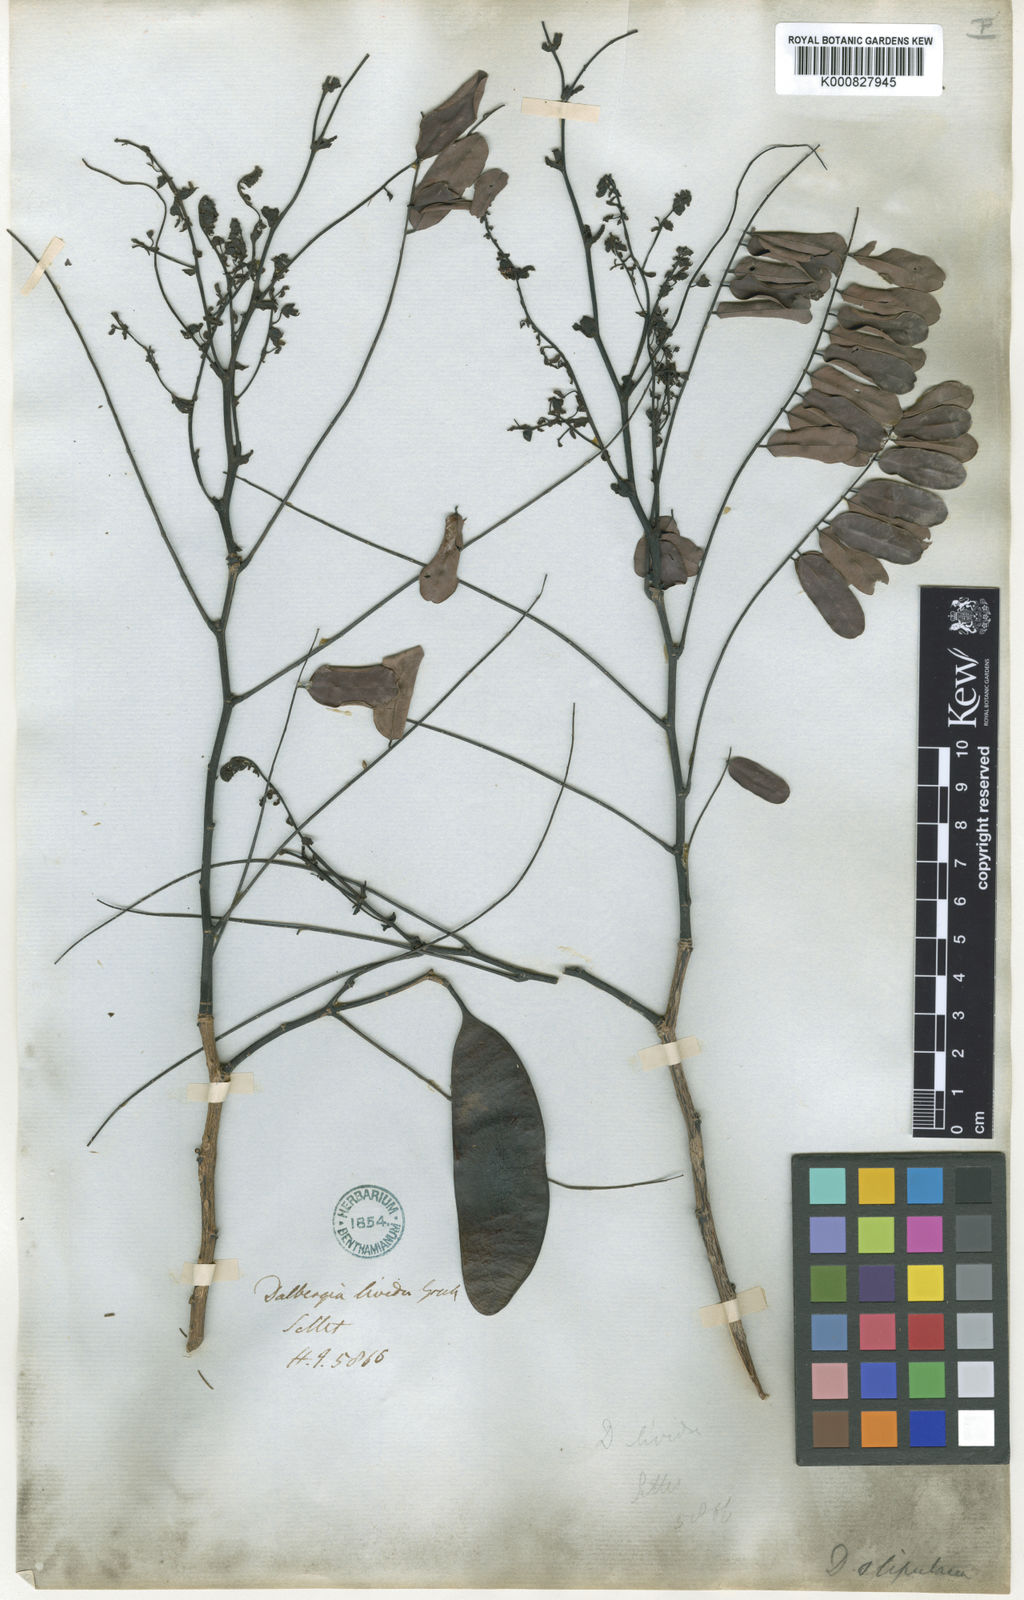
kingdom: Plantae
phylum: Tracheophyta
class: Magnoliopsida
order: Fabales
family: Fabaceae
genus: Dalbergia
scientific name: Dalbergia stipulacea
